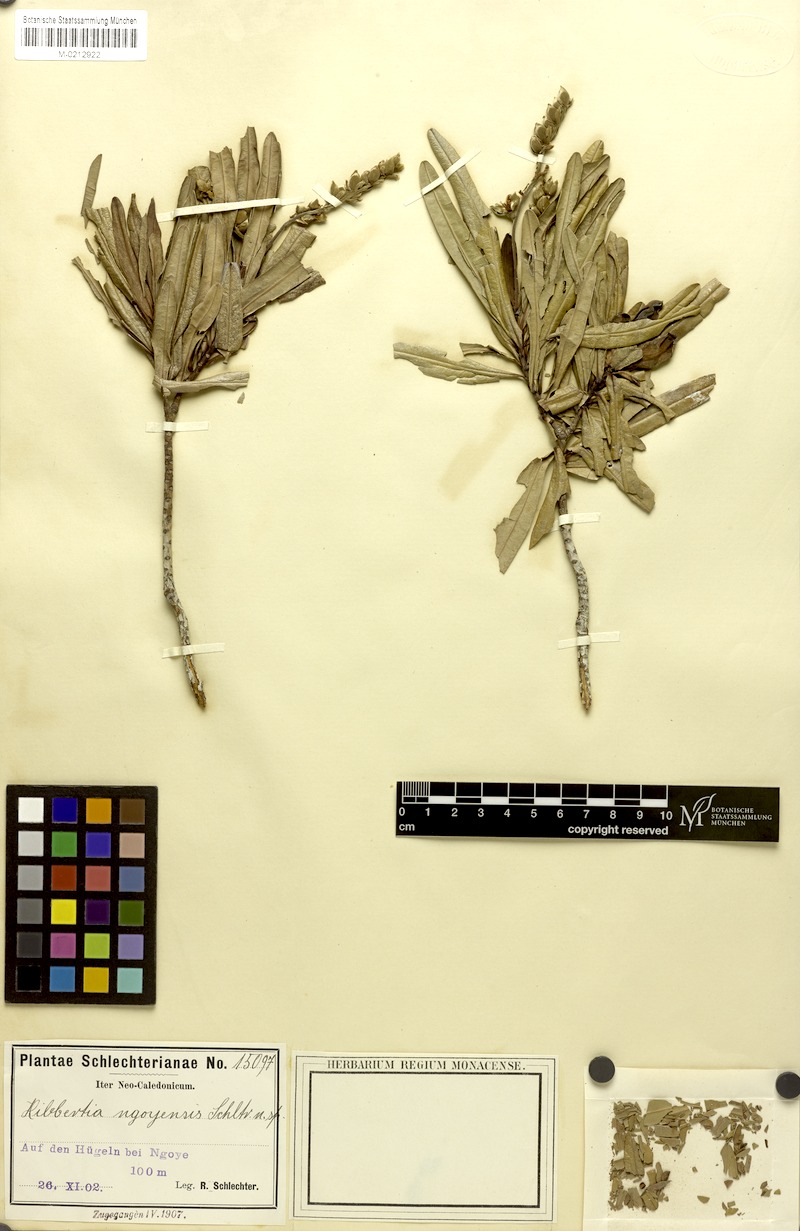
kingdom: Plantae
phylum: Tracheophyta
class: Magnoliopsida
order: Dilleniales
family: Dilleniaceae
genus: Hibbertia
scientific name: Hibbertia podocarpifolia
